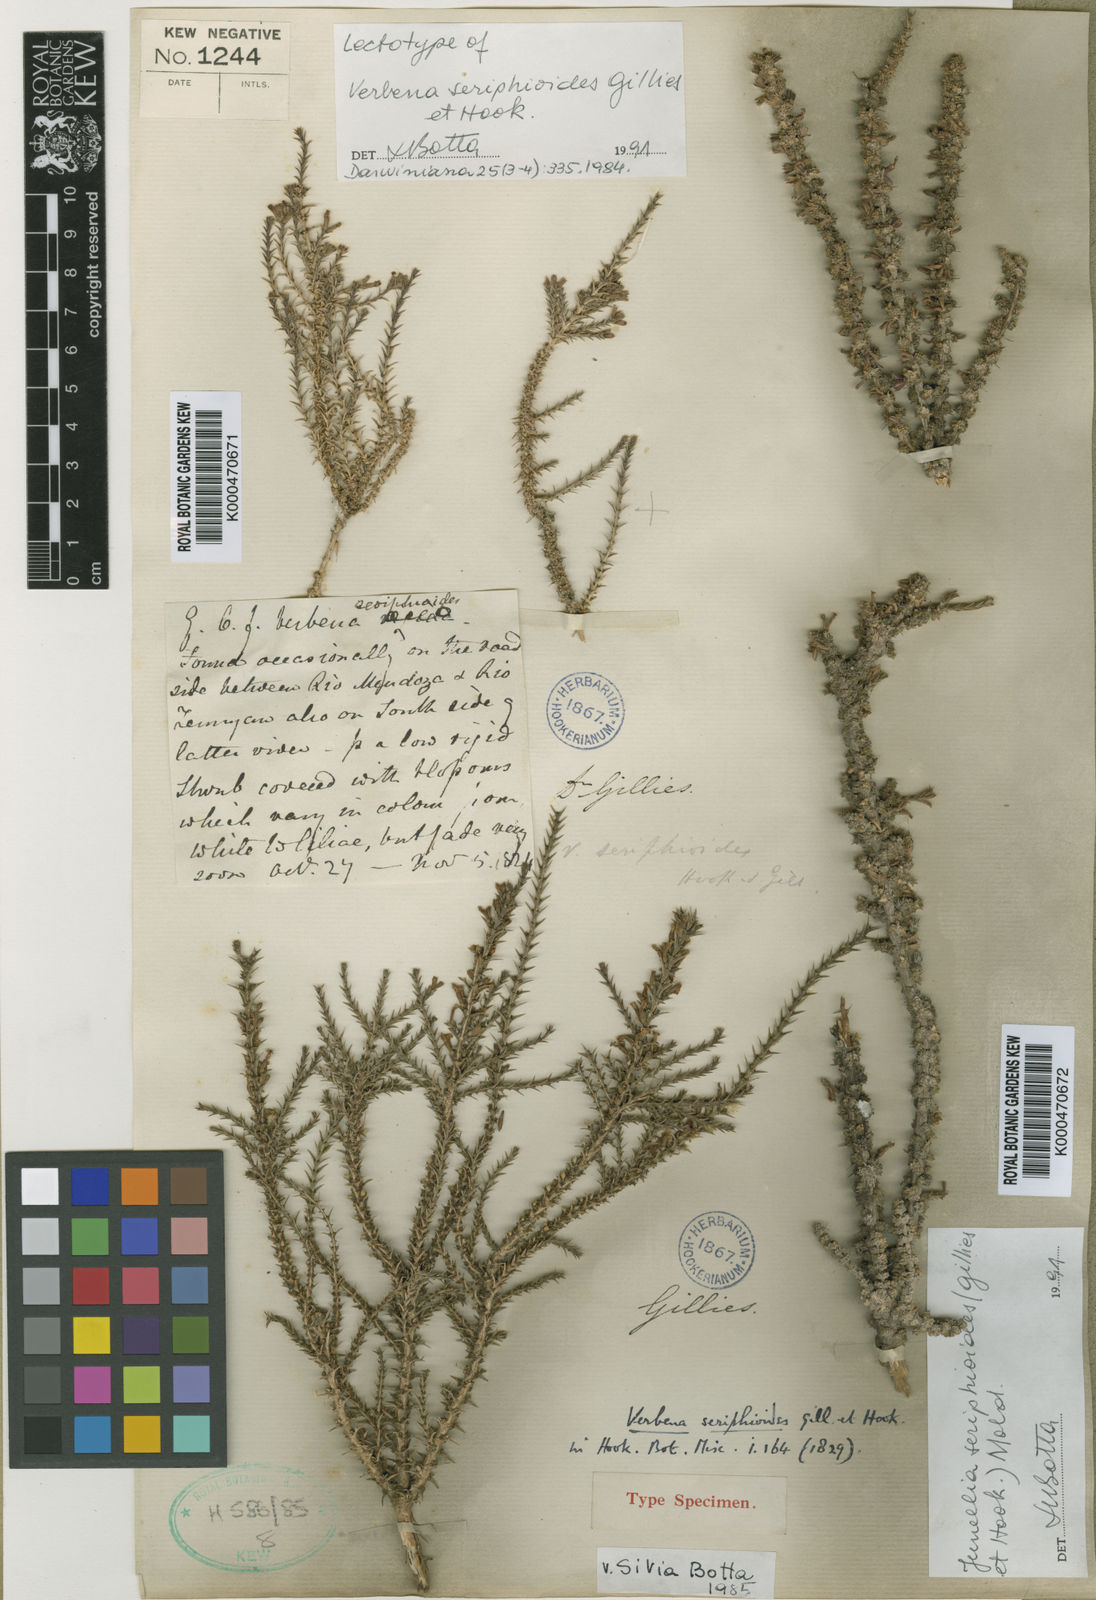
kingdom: Plantae
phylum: Tracheophyta
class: Magnoliopsida
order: Lamiales
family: Verbenaceae
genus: Junellia
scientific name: Junellia seriphioides
